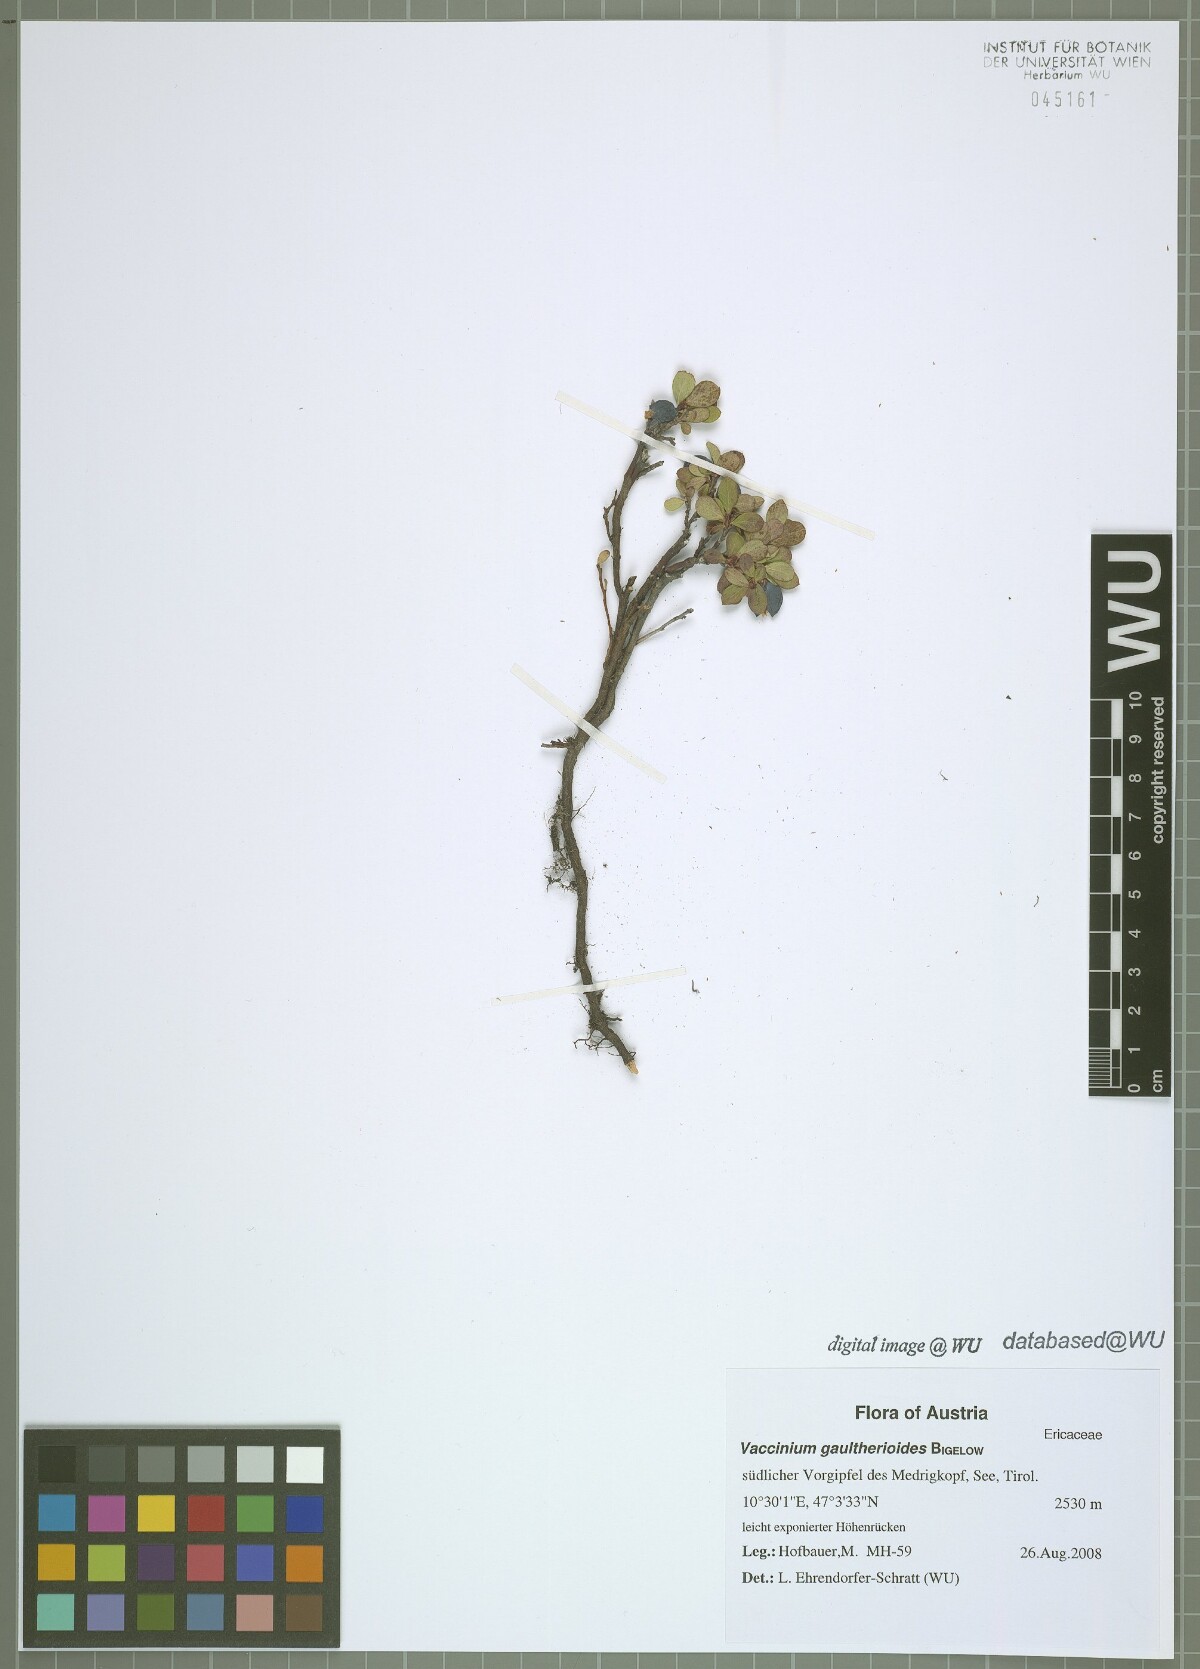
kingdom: Plantae
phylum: Tracheophyta
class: Magnoliopsida
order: Ericales
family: Ericaceae
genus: Vaccinium
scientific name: Vaccinium gaultherioides
